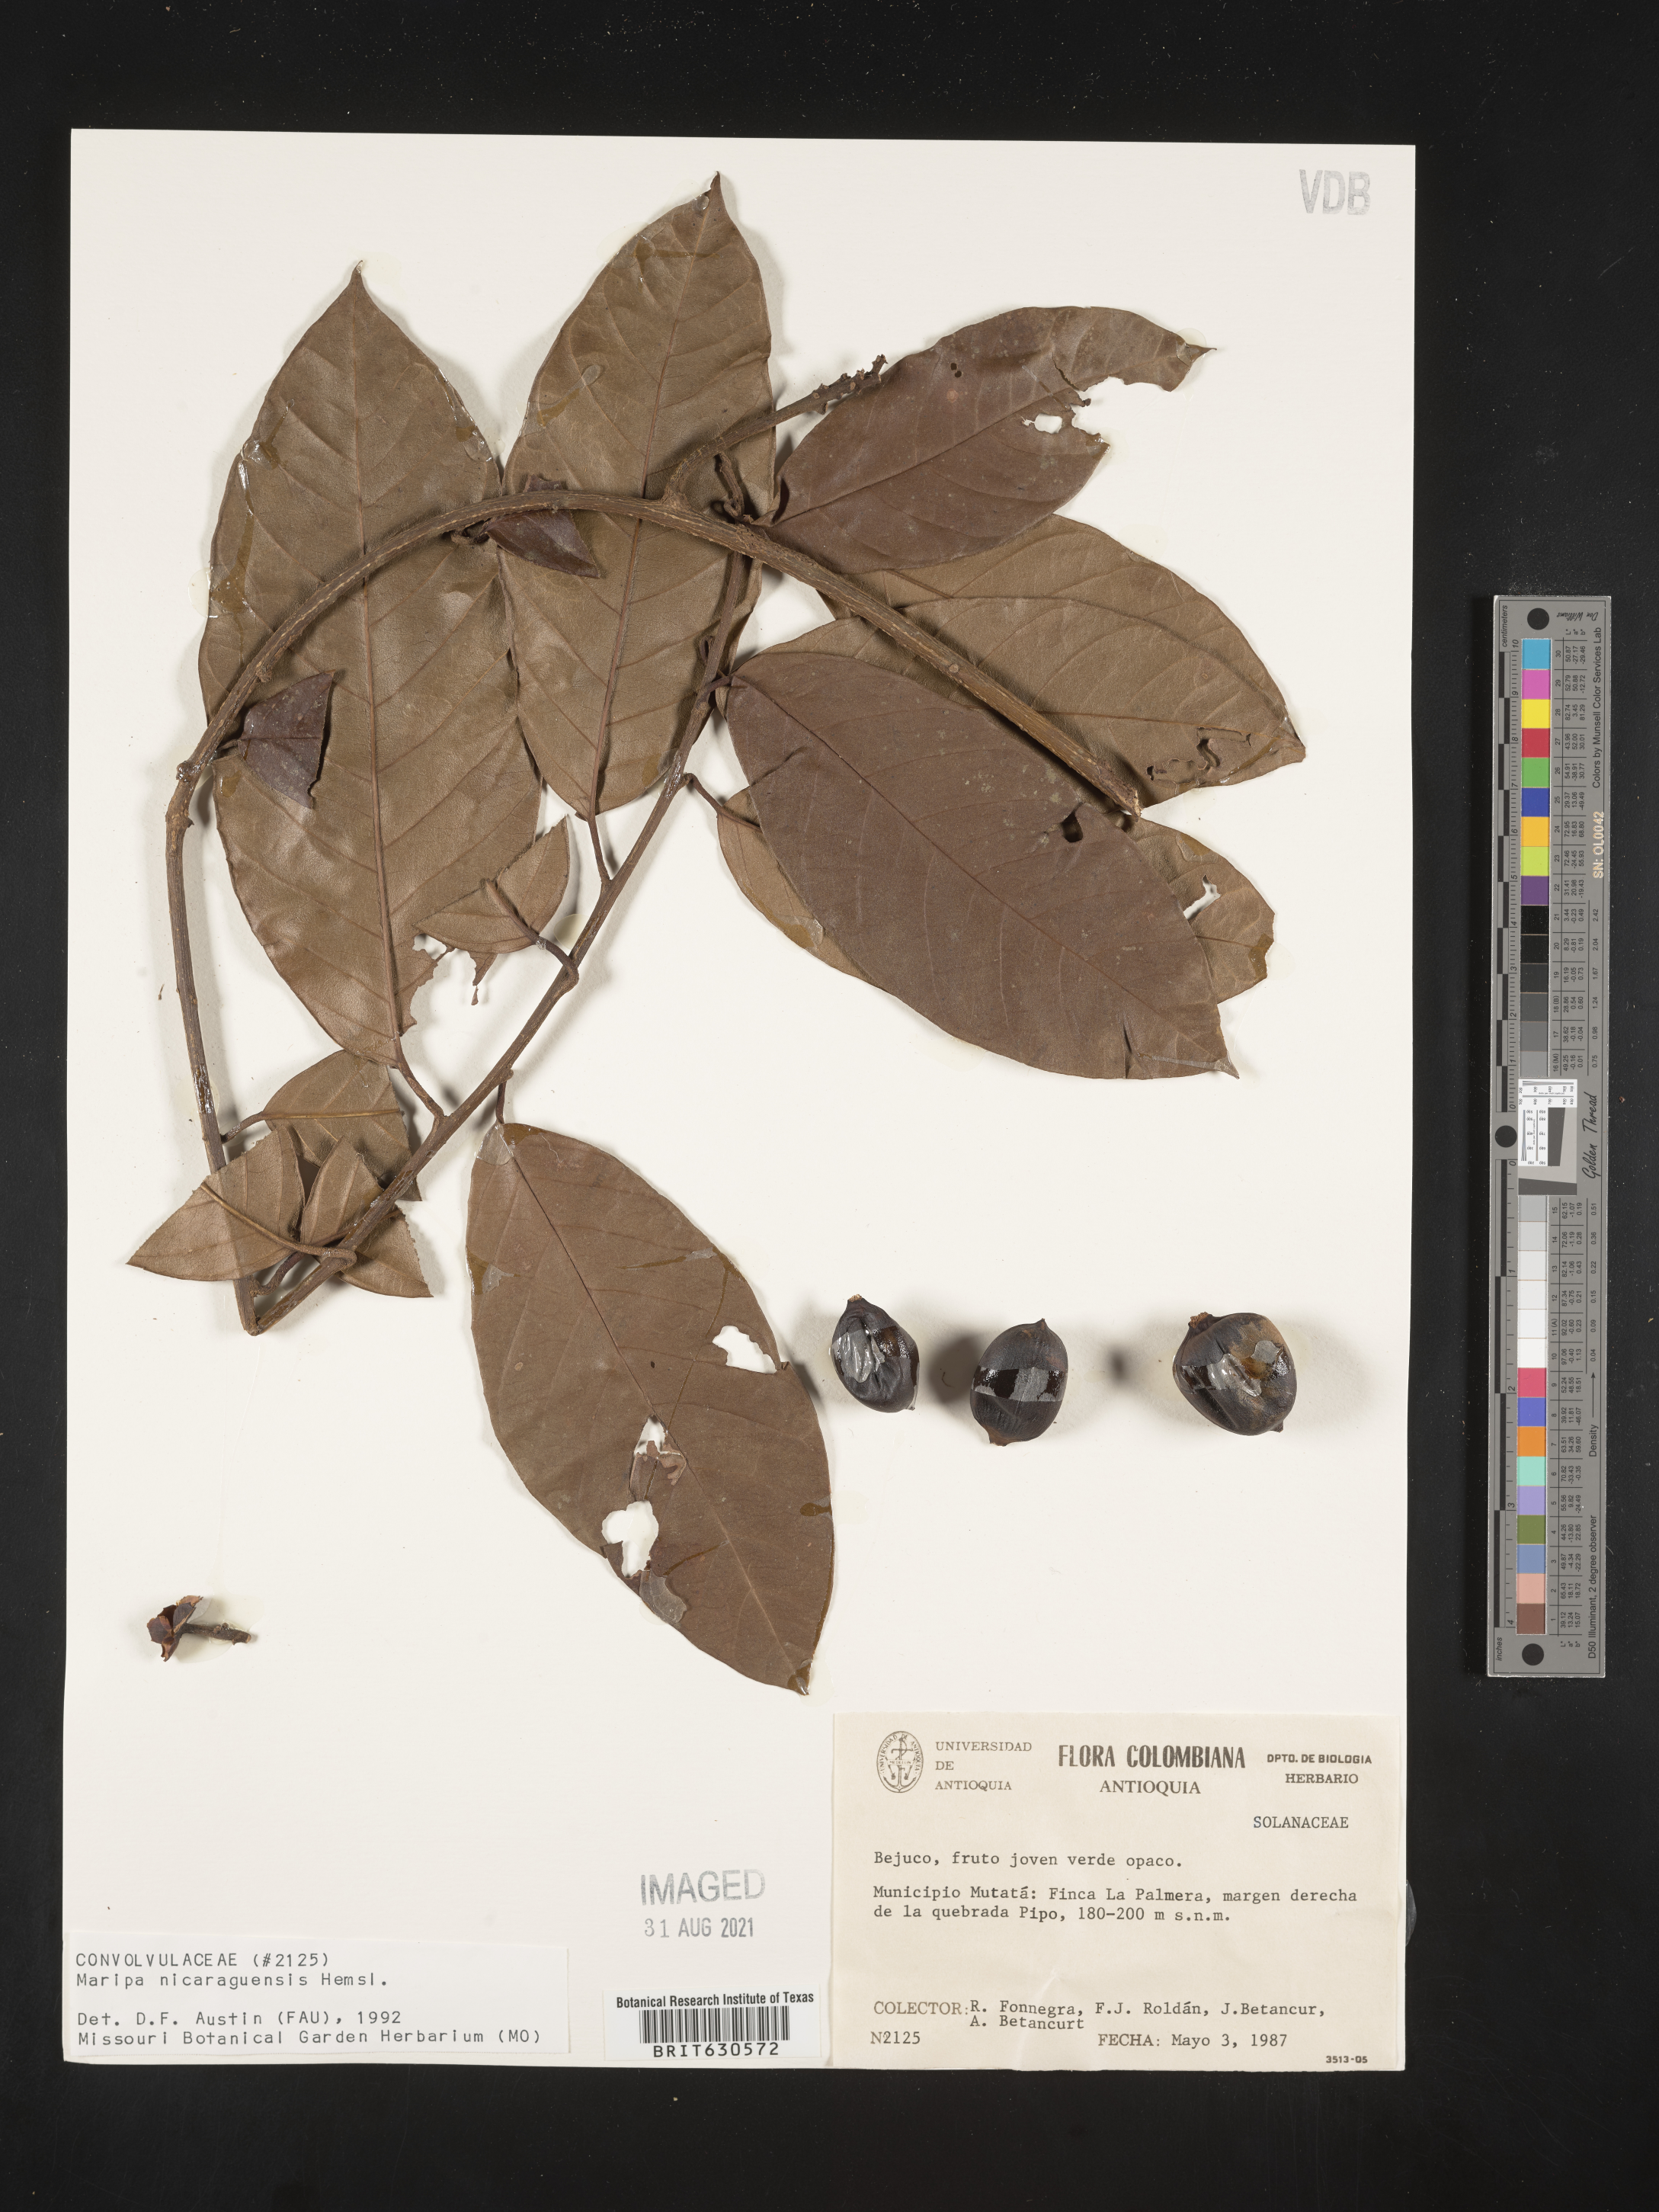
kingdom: Plantae
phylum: Tracheophyta
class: Magnoliopsida
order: Solanales
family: Convolvulaceae
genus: Maripa
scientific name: Maripa nicaraguensis
